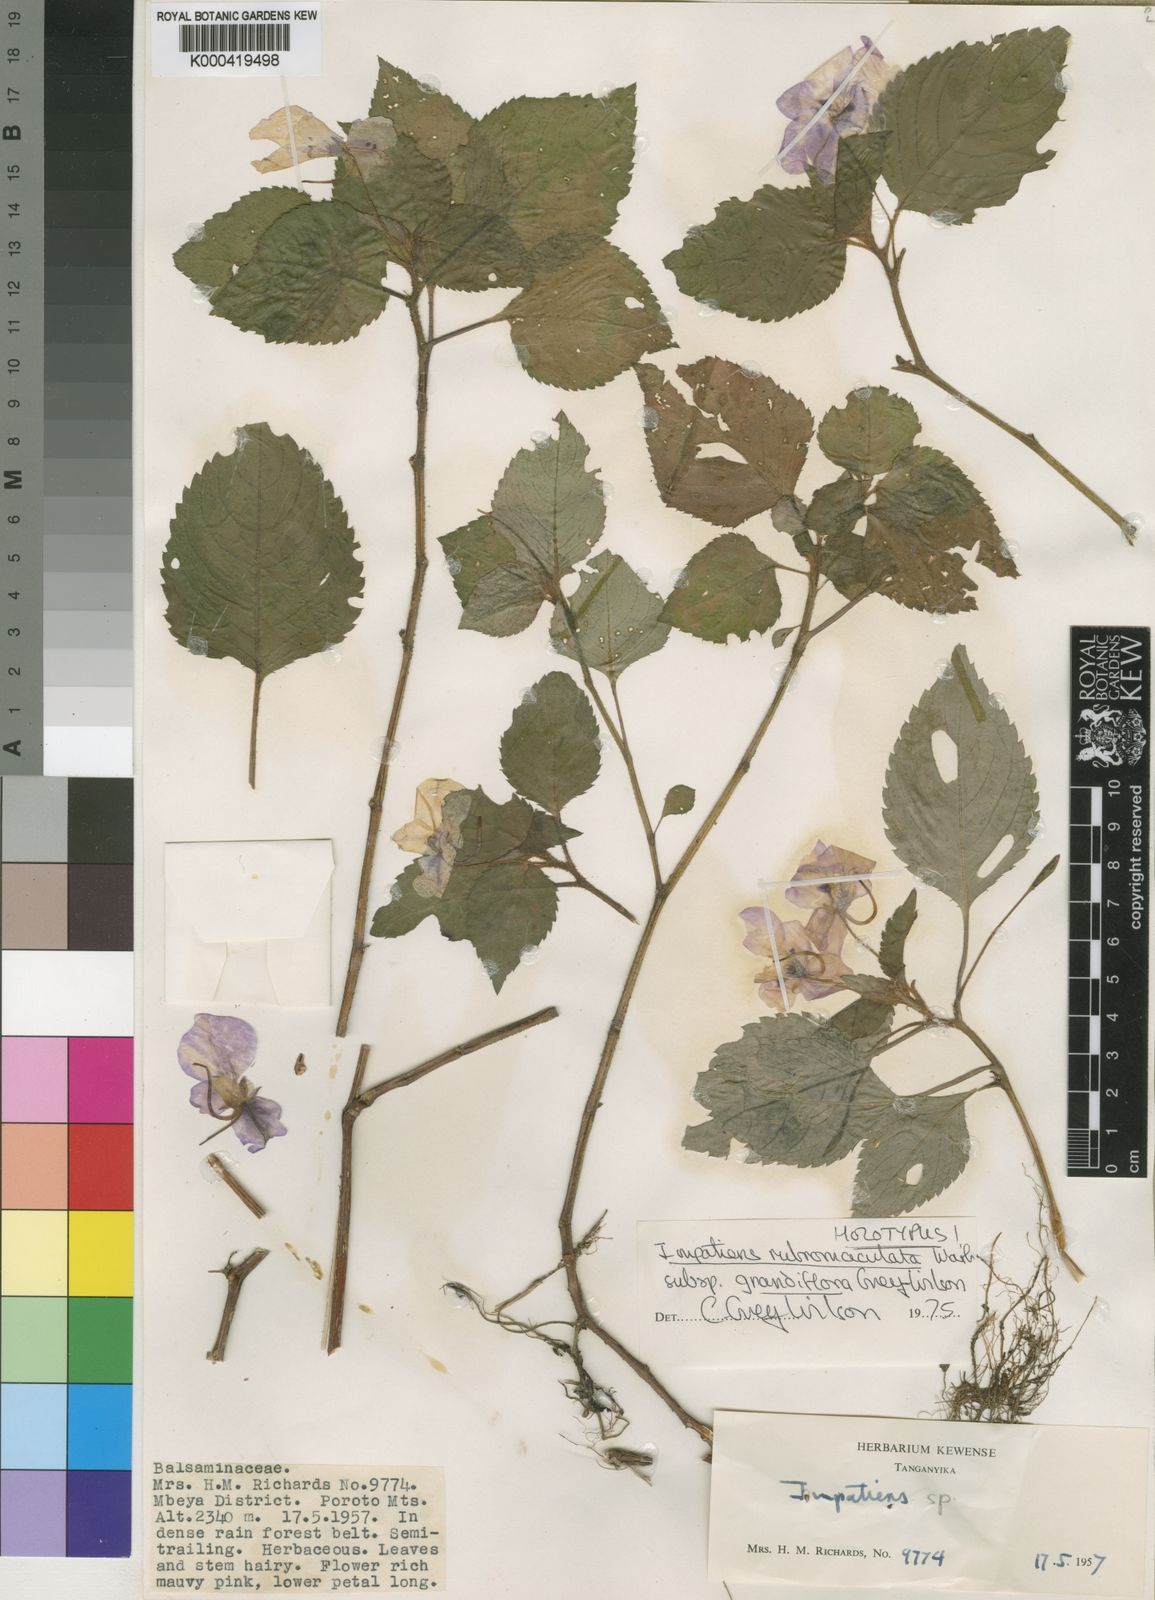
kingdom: Plantae
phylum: Tracheophyta
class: Magnoliopsida
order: Ericales
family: Balsaminaceae
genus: Impatiens
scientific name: Impatiens rubromaculata
